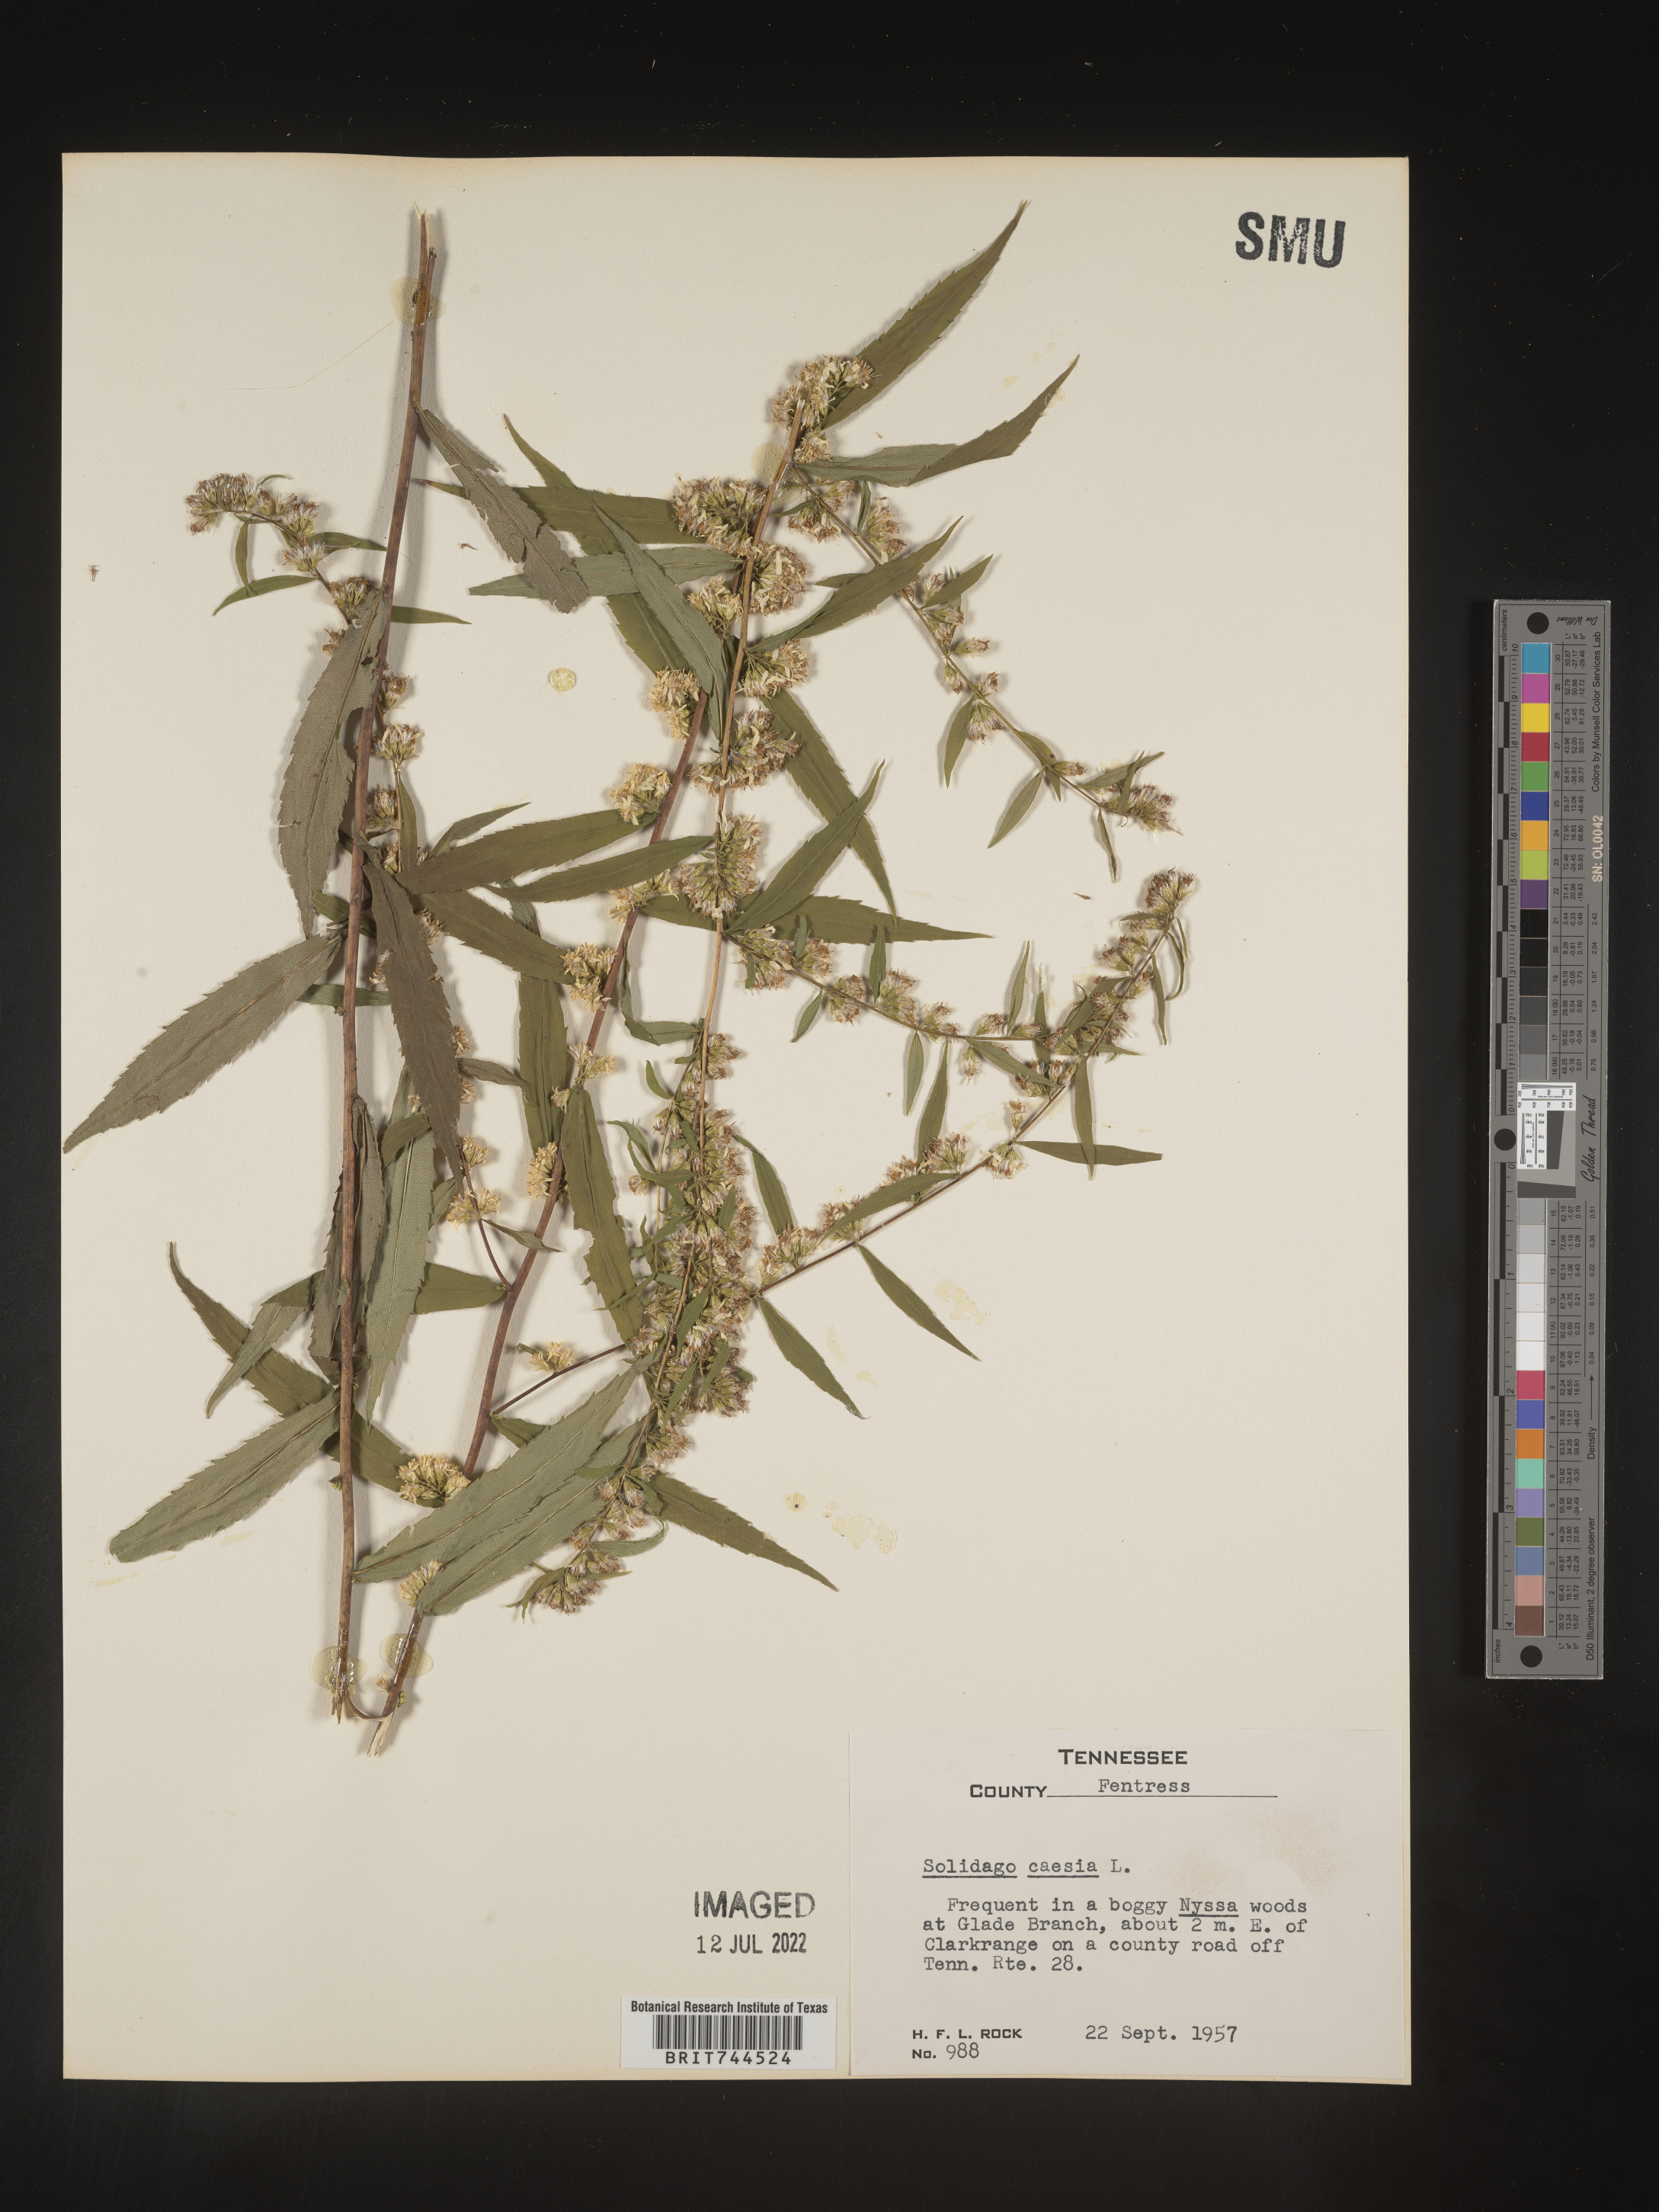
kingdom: Plantae
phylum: Tracheophyta
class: Magnoliopsida
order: Asterales
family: Asteraceae
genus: Solidago
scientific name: Solidago caesia
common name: Woodland goldenrod
